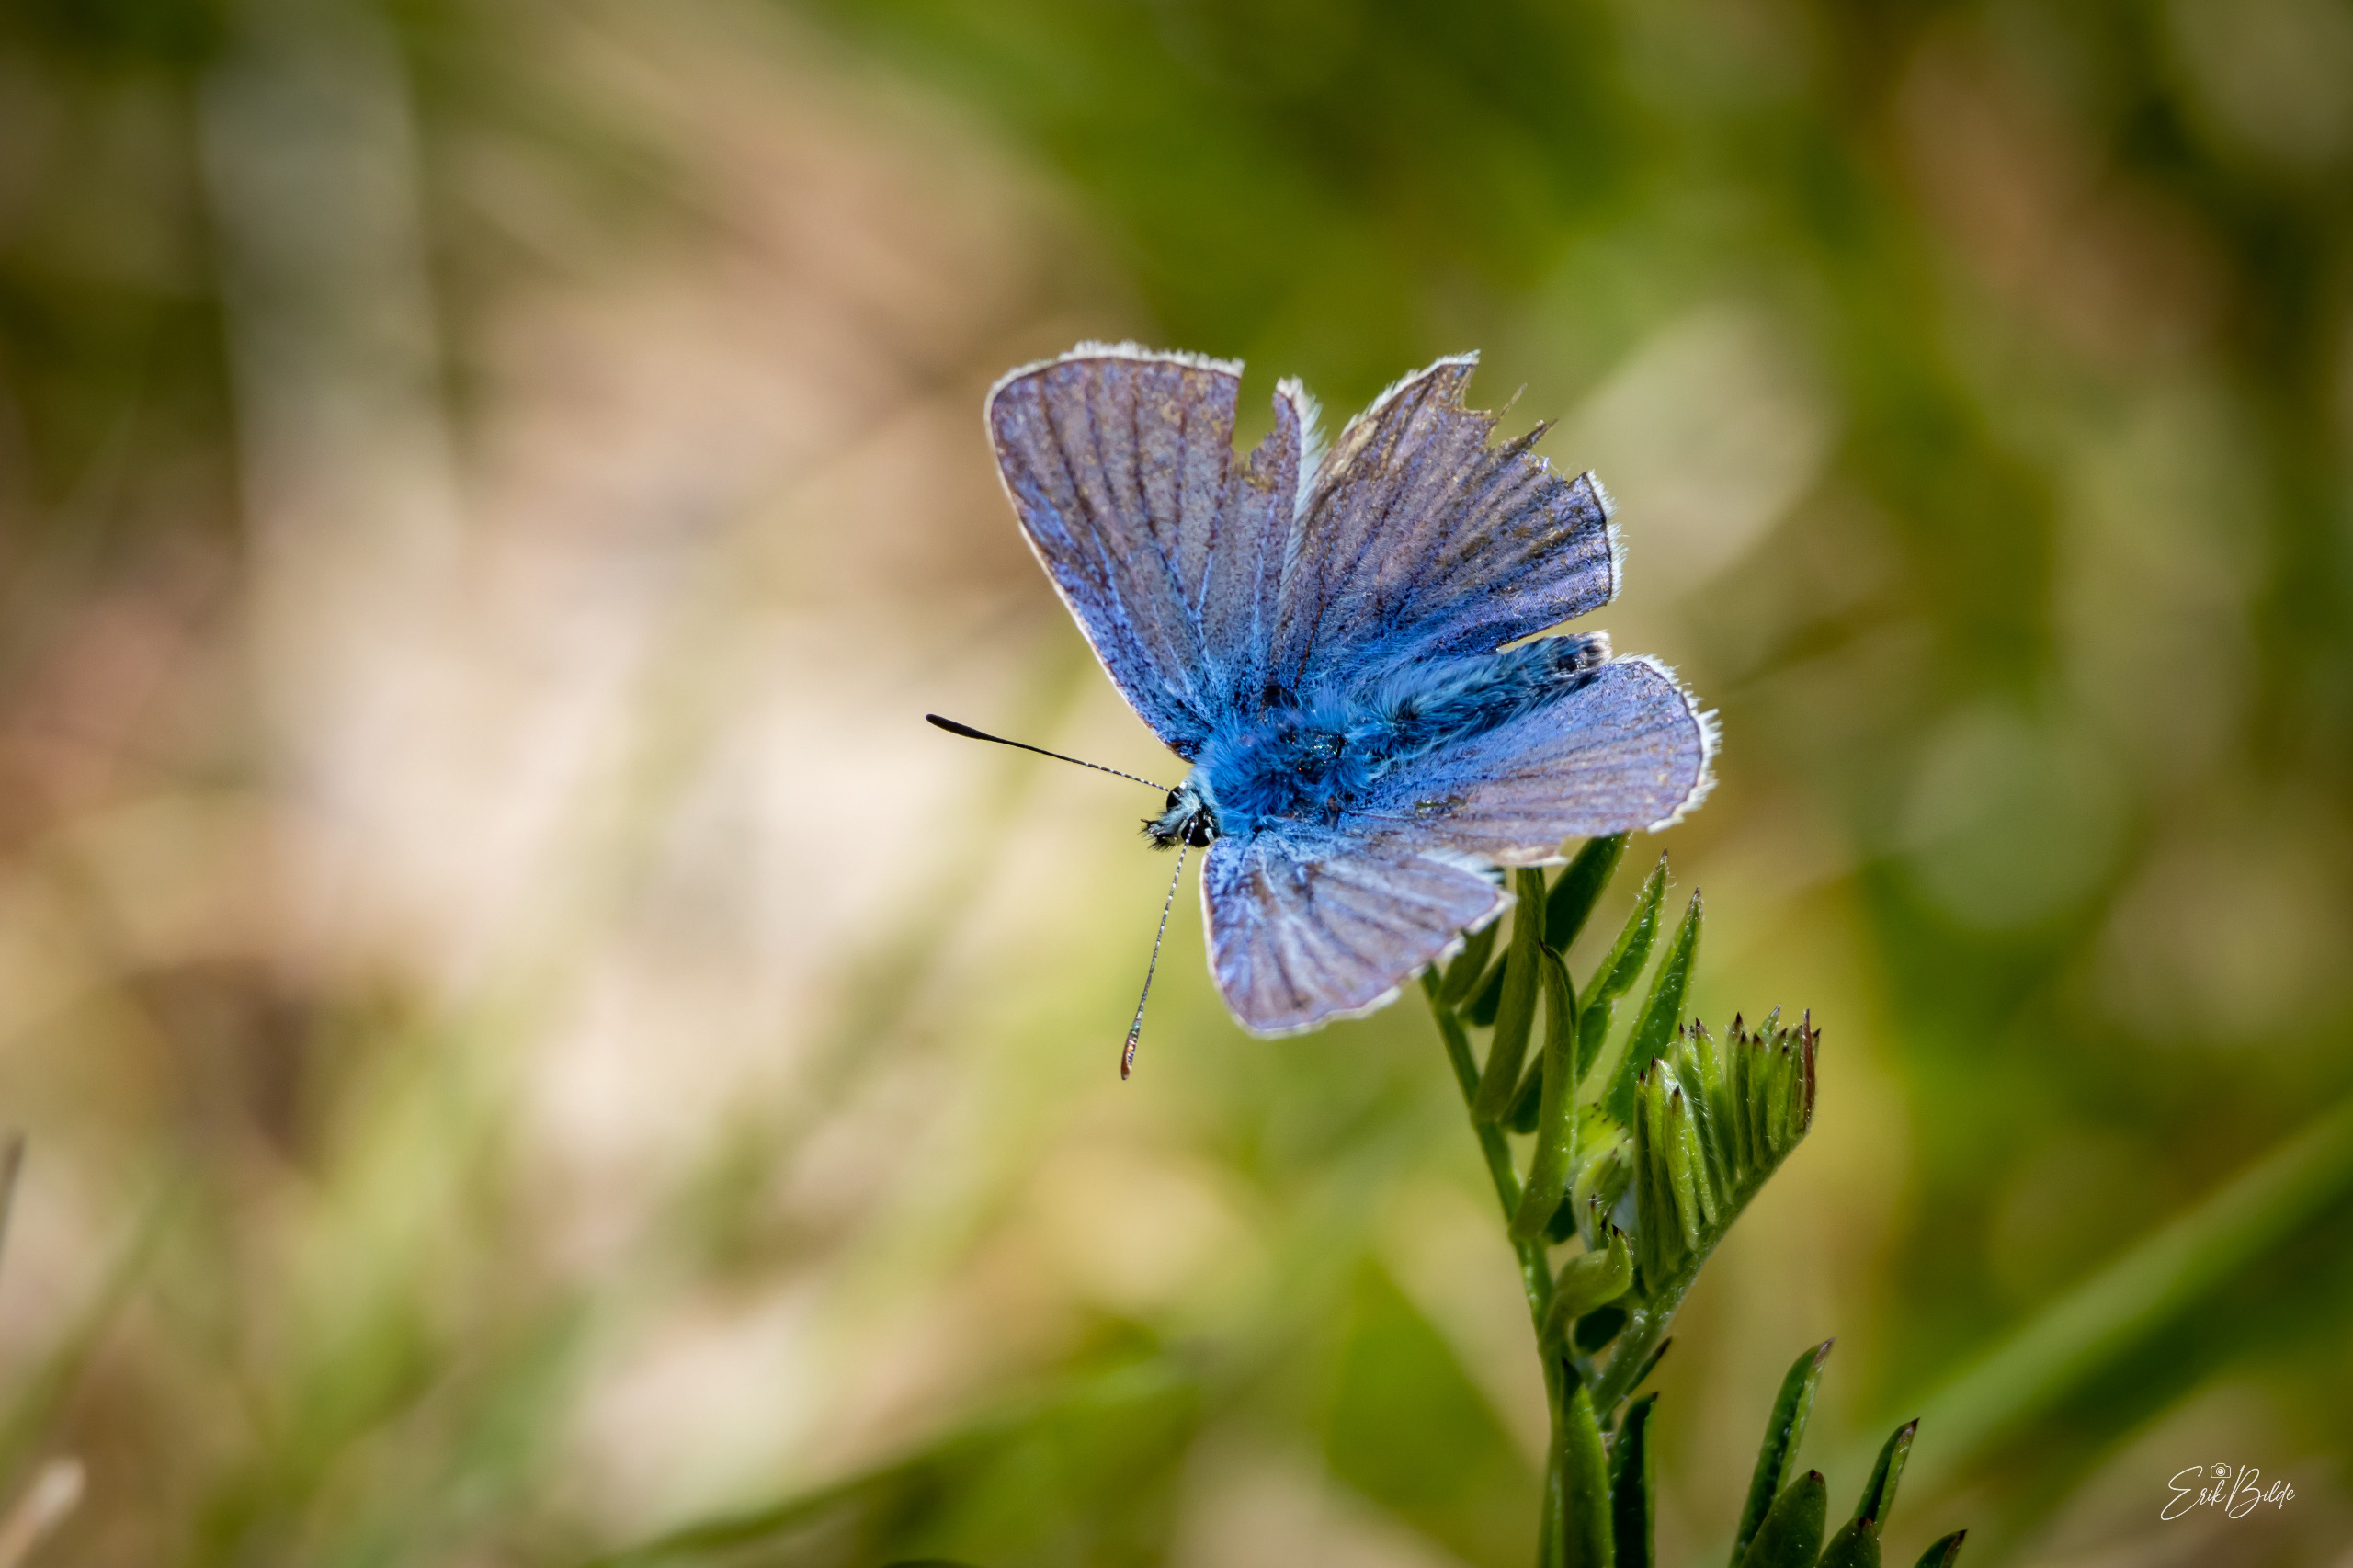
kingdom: Animalia
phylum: Arthropoda
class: Insecta
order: Lepidoptera
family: Lycaenidae
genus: Polyommatus
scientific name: Polyommatus icarus
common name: Almindelig blåfugl
